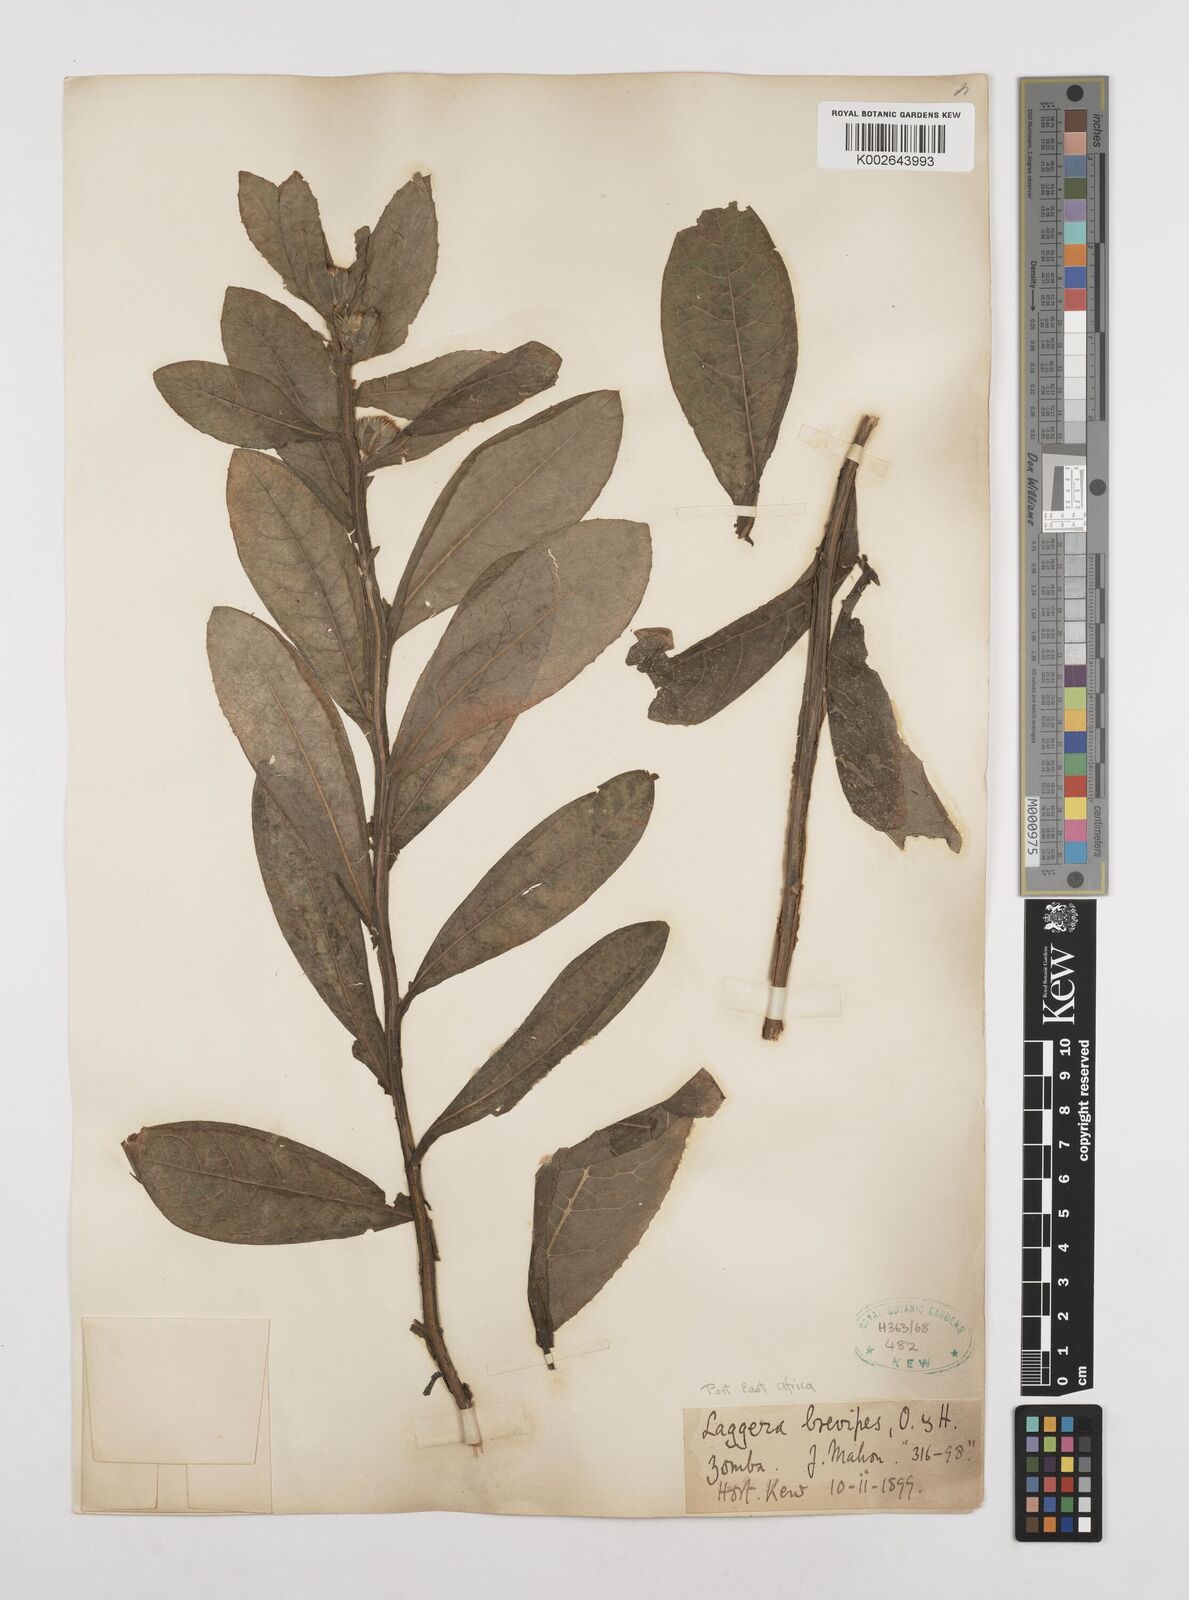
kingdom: Plantae
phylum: Tracheophyta
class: Magnoliopsida
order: Asterales
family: Asteraceae
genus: Laggera
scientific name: Laggera brevipes
